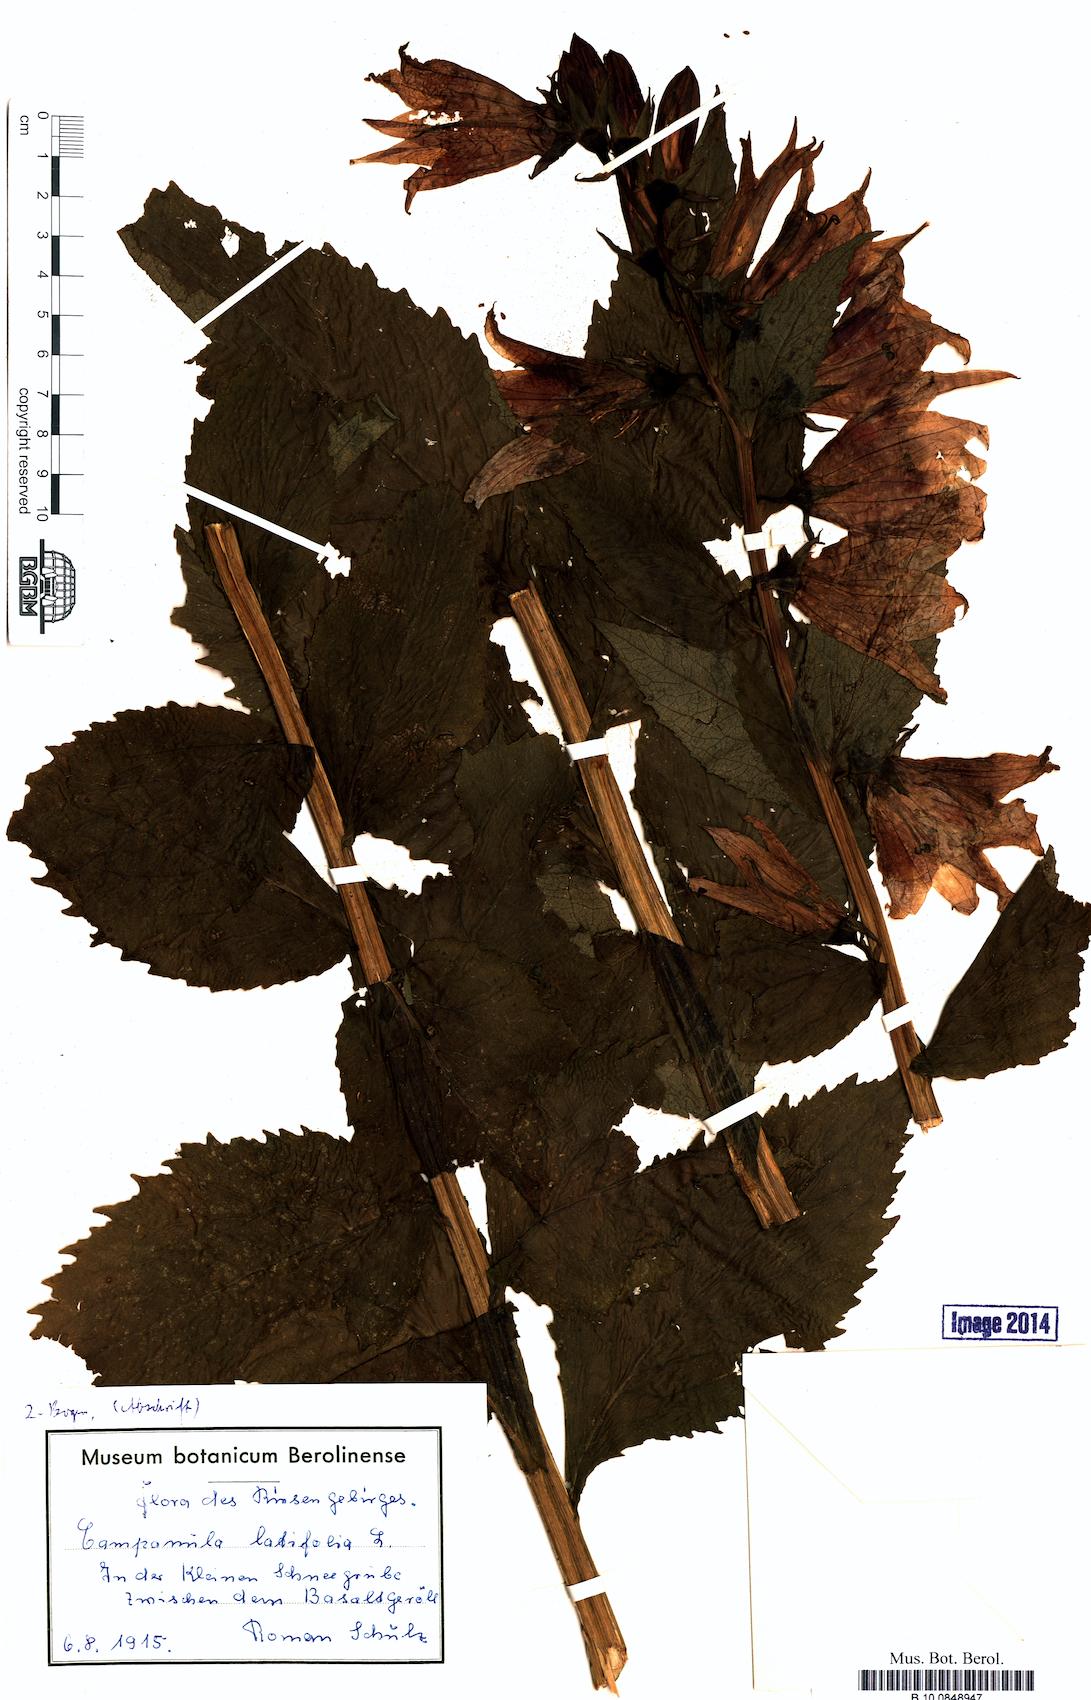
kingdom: Plantae
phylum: Tracheophyta
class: Magnoliopsida
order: Asterales
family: Campanulaceae
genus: Campanula
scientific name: Campanula latifolia
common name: Giant bellflower
